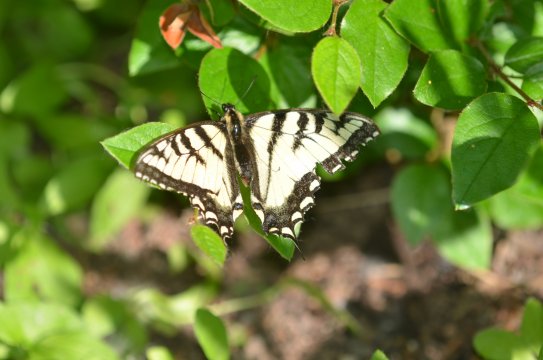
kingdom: Animalia
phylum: Arthropoda
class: Insecta
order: Lepidoptera
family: Papilionidae
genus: Pterourus
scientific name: Pterourus canadensis
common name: Canadian Tiger Swallowtail
